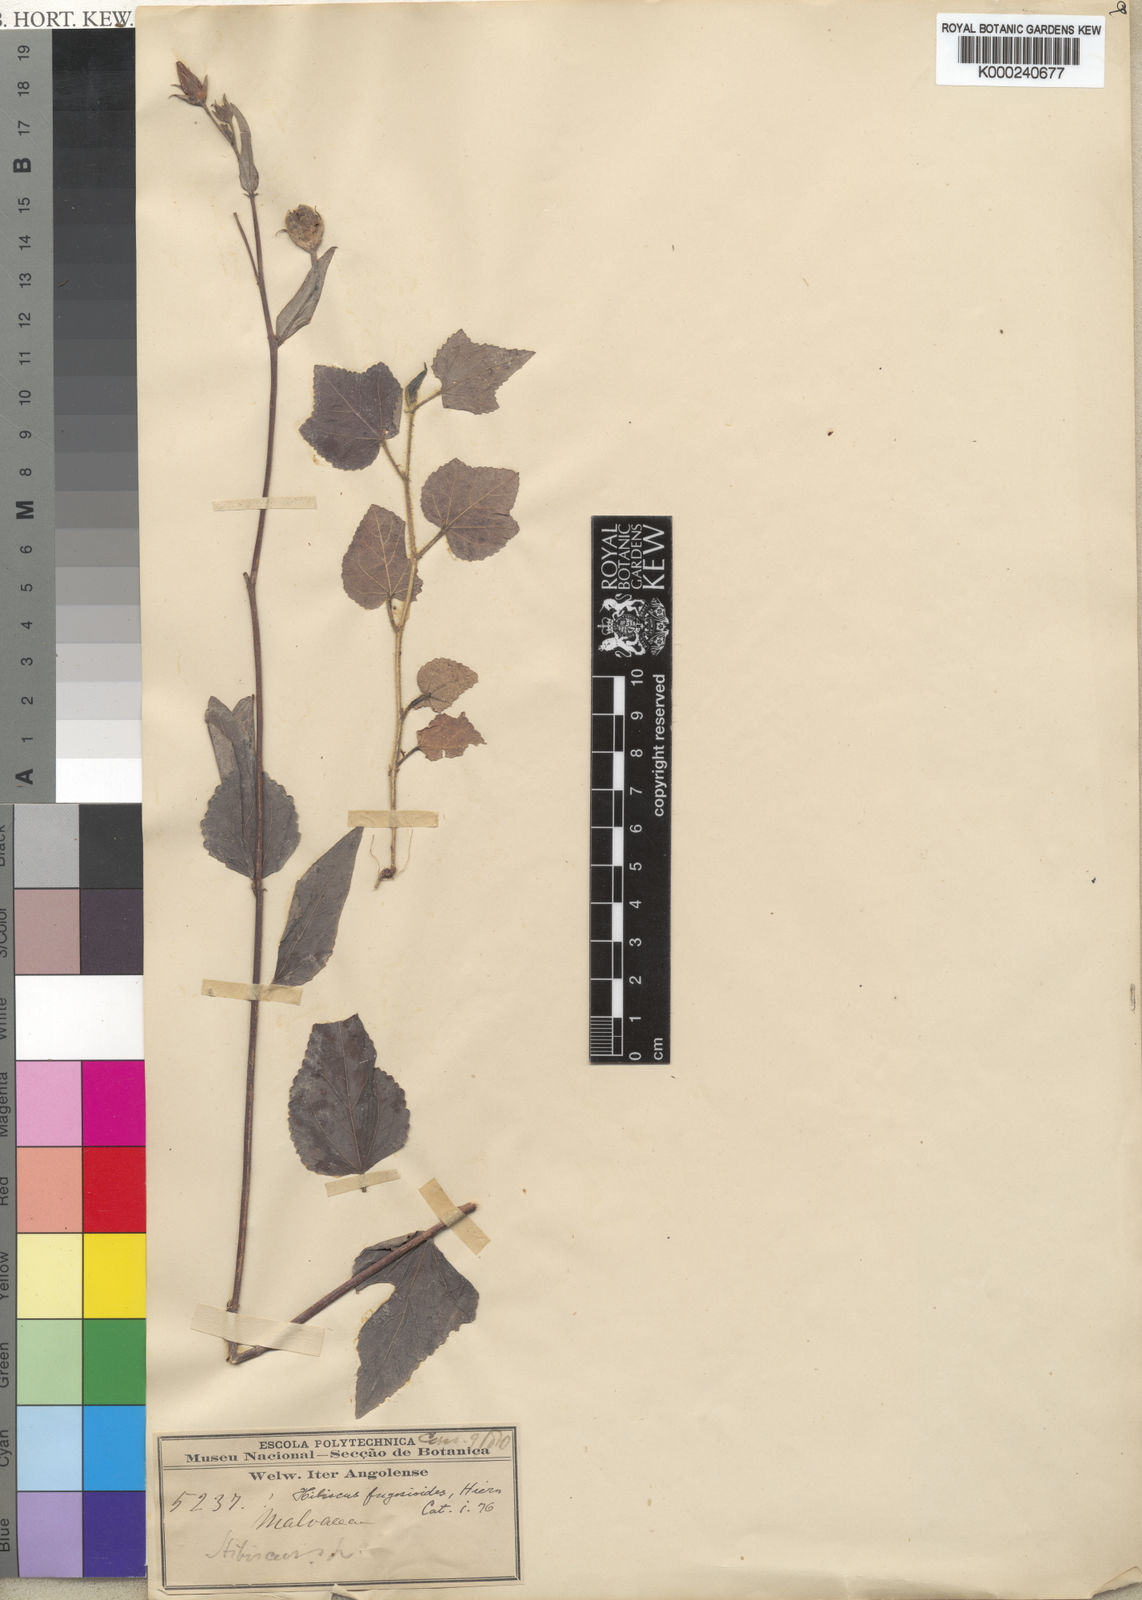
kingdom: Plantae
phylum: Tracheophyta
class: Magnoliopsida
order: Malvales
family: Malvaceae
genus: Hibiscus
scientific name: Hibiscus orbicularis
